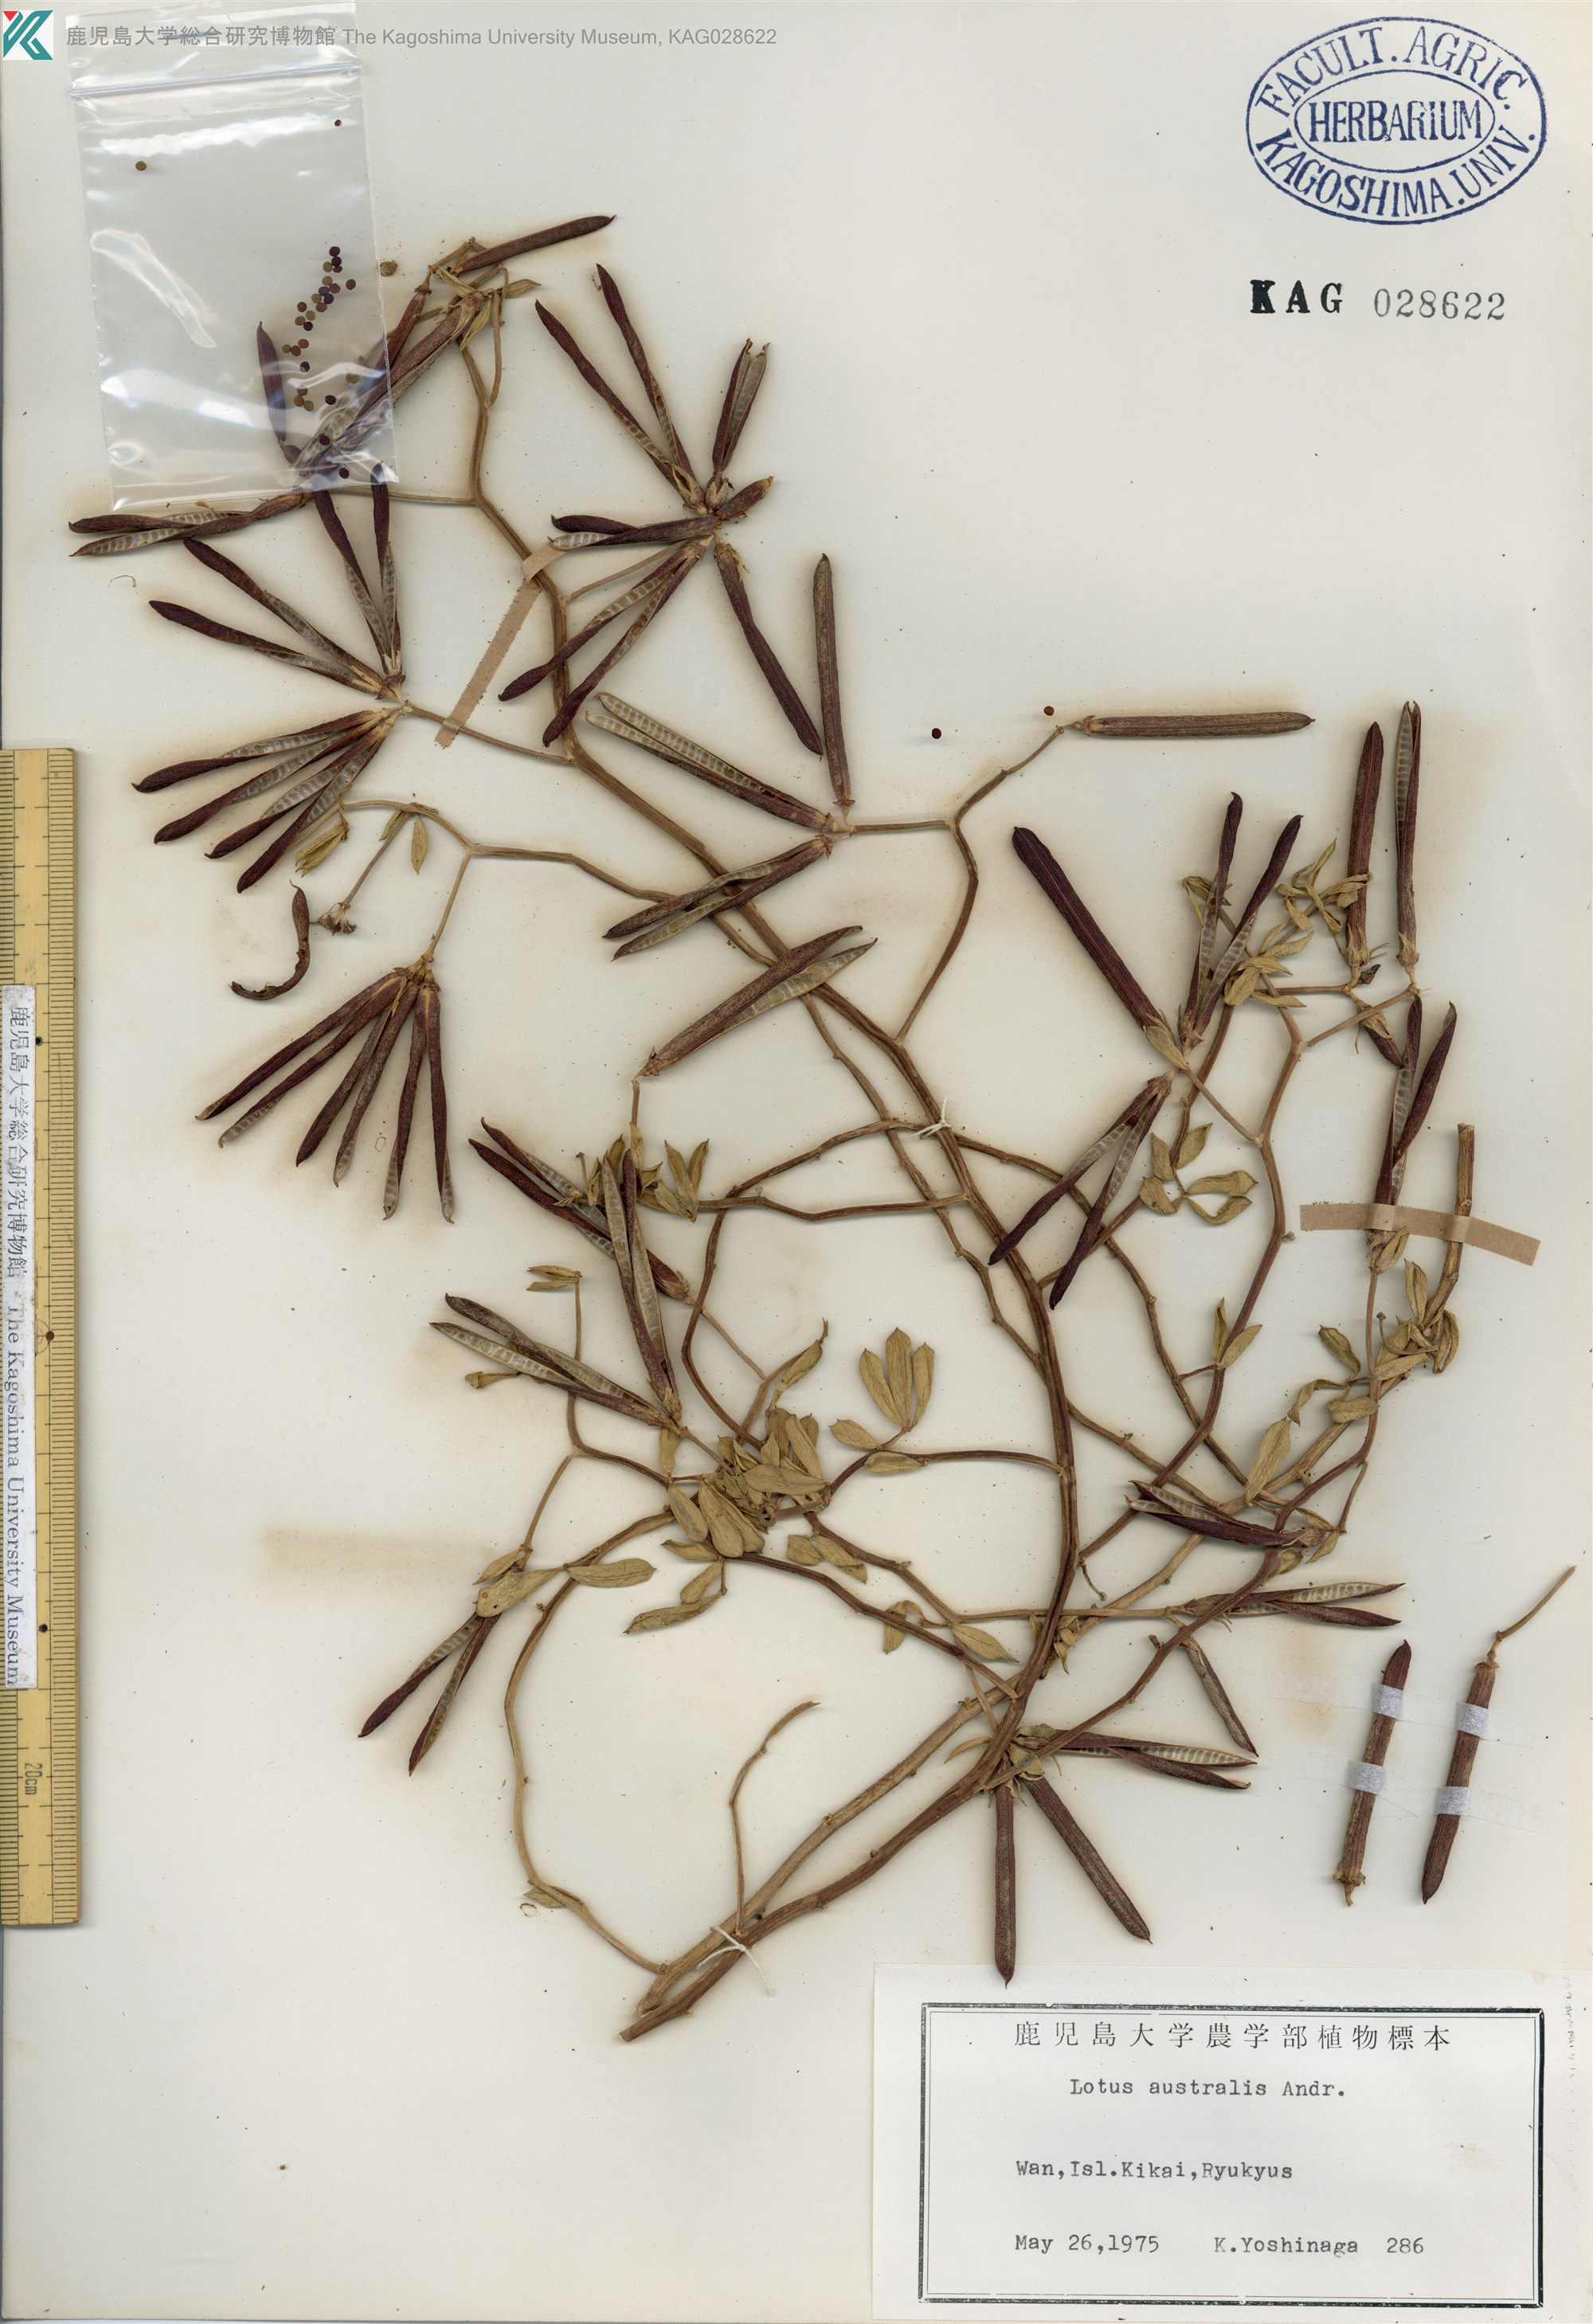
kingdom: Plantae
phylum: Tracheophyta
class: Magnoliopsida
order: Fabales
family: Fabaceae
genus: Lotus
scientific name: Lotus taitungensis
